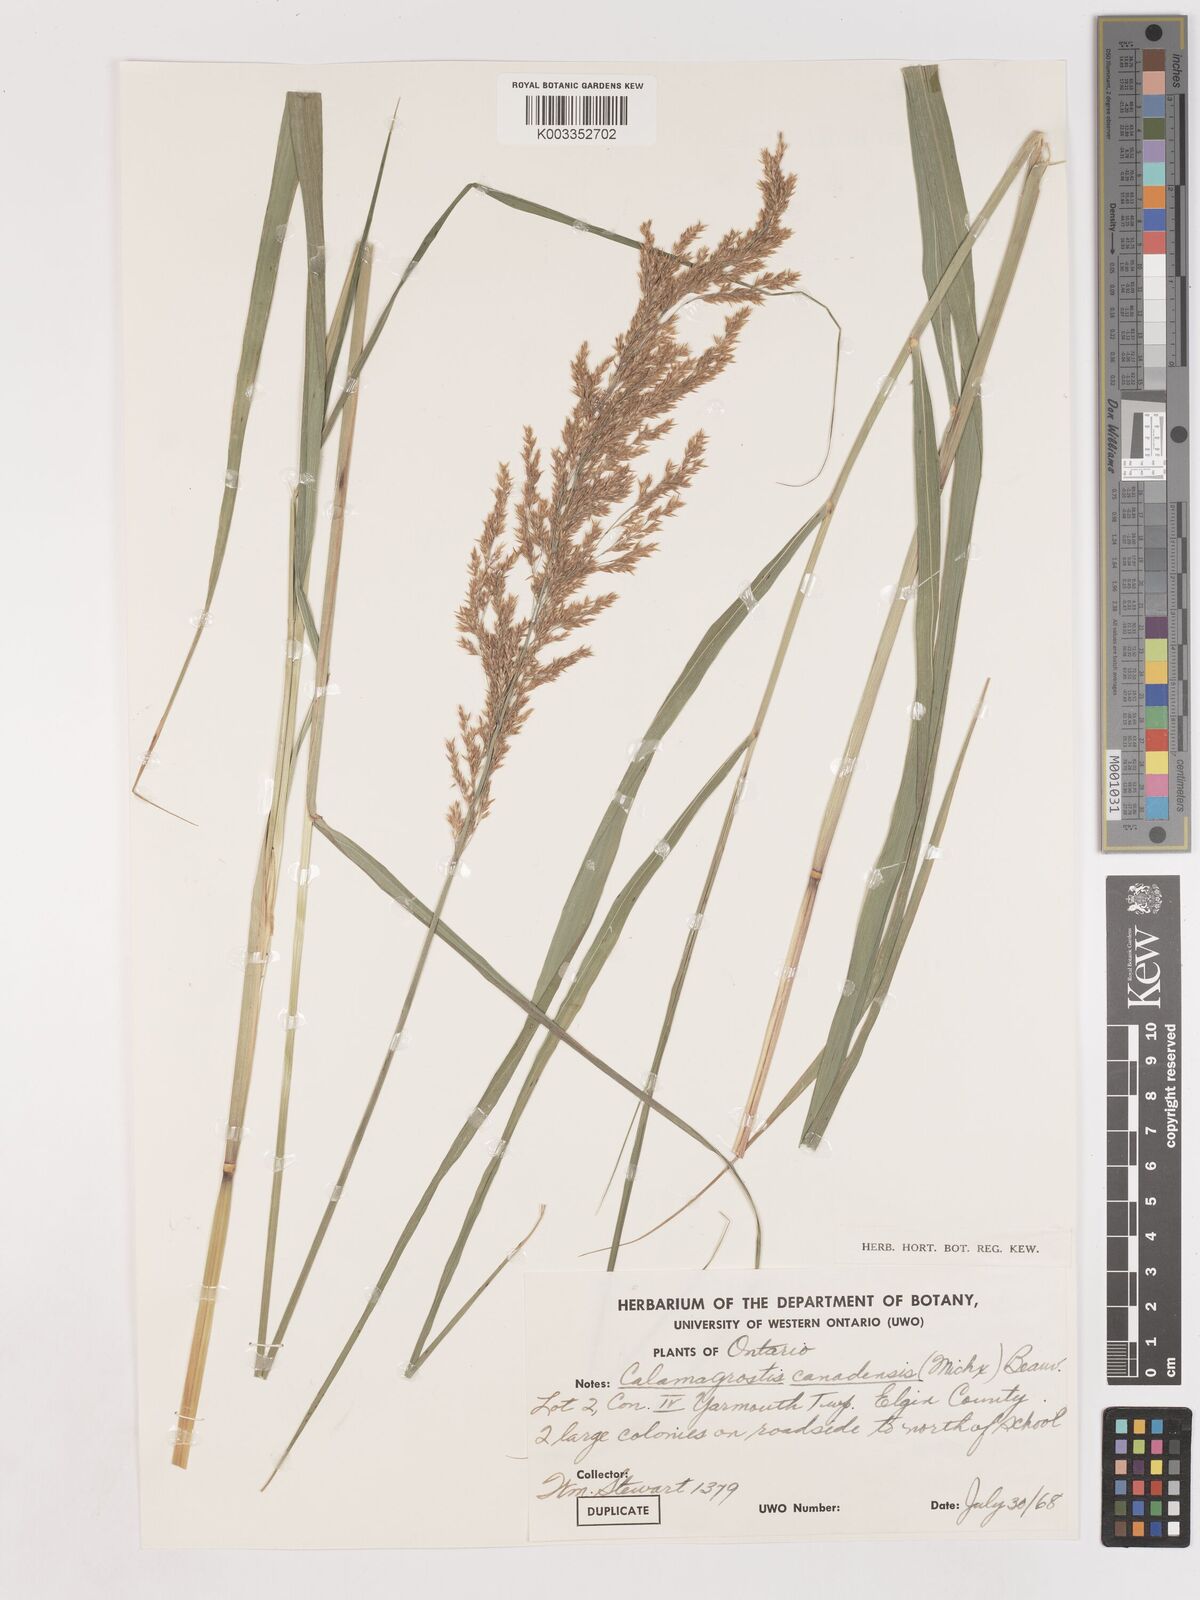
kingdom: Plantae
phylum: Tracheophyta
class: Liliopsida
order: Poales
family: Poaceae
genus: Calamagrostis
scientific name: Calamagrostis canadensis
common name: Canada bluejoint
